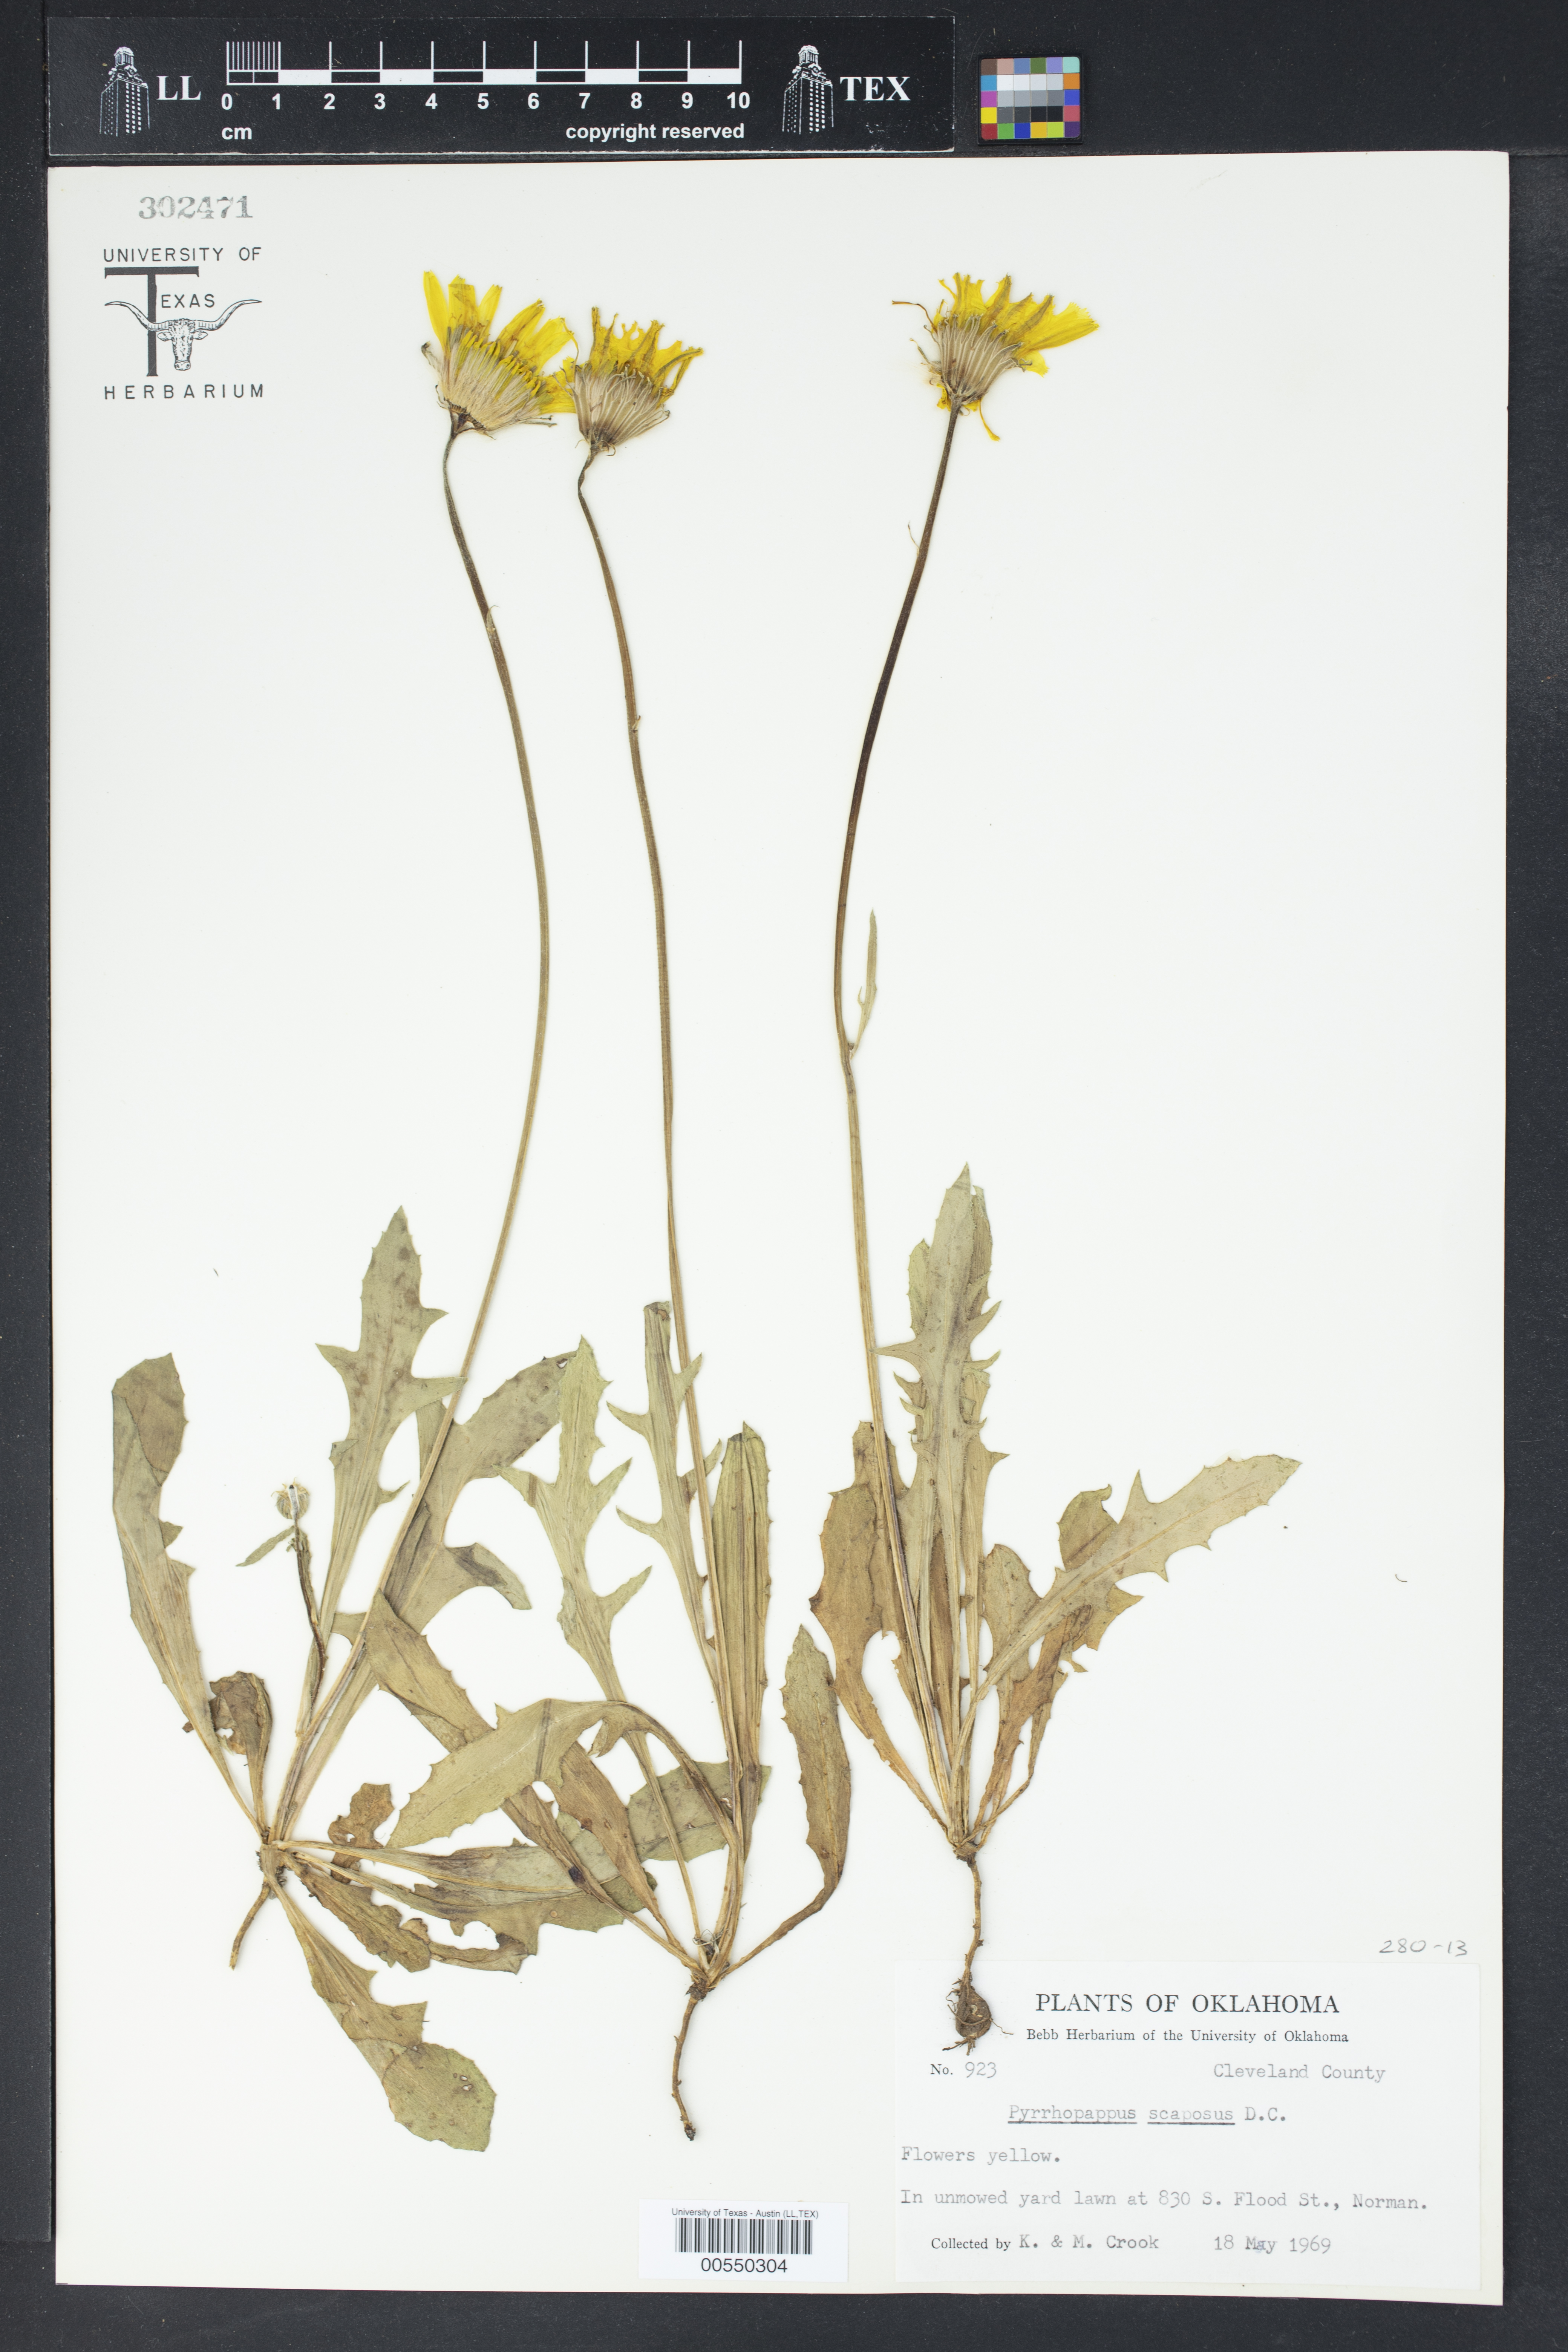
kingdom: Plantae
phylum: Tracheophyta
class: Magnoliopsida
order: Asterales
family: Asteraceae
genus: Pyrrhopappus
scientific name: Pyrrhopappus grandiflorus
